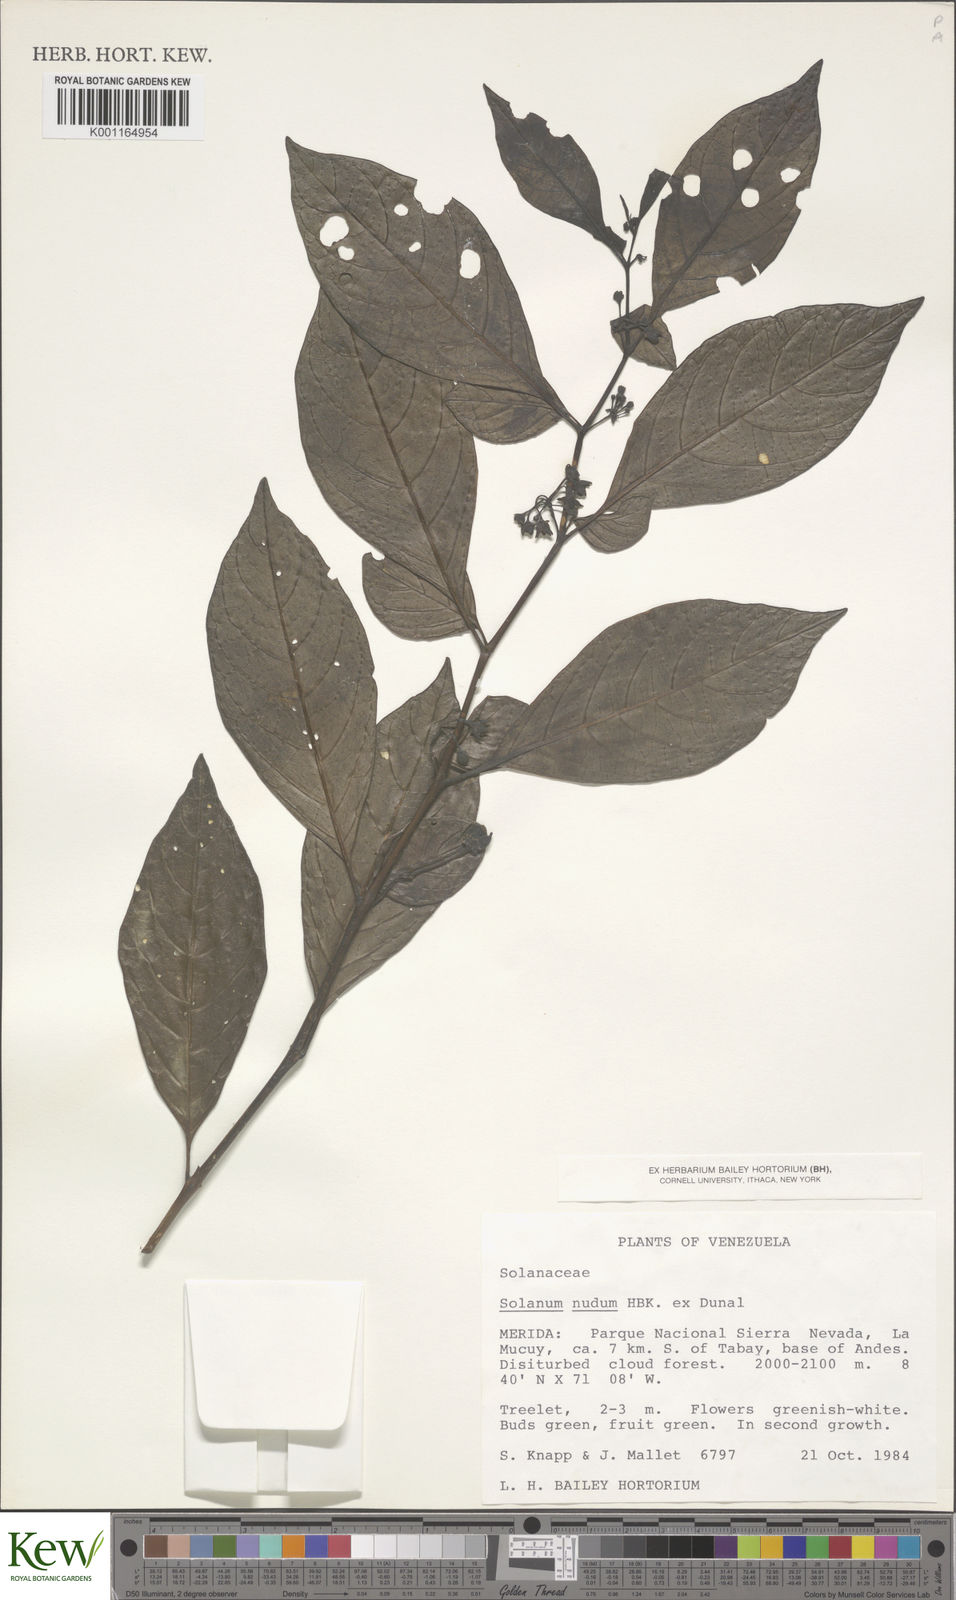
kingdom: Plantae
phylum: Tracheophyta
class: Magnoliopsida
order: Solanales
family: Solanaceae
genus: Solanum
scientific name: Solanum nudum
